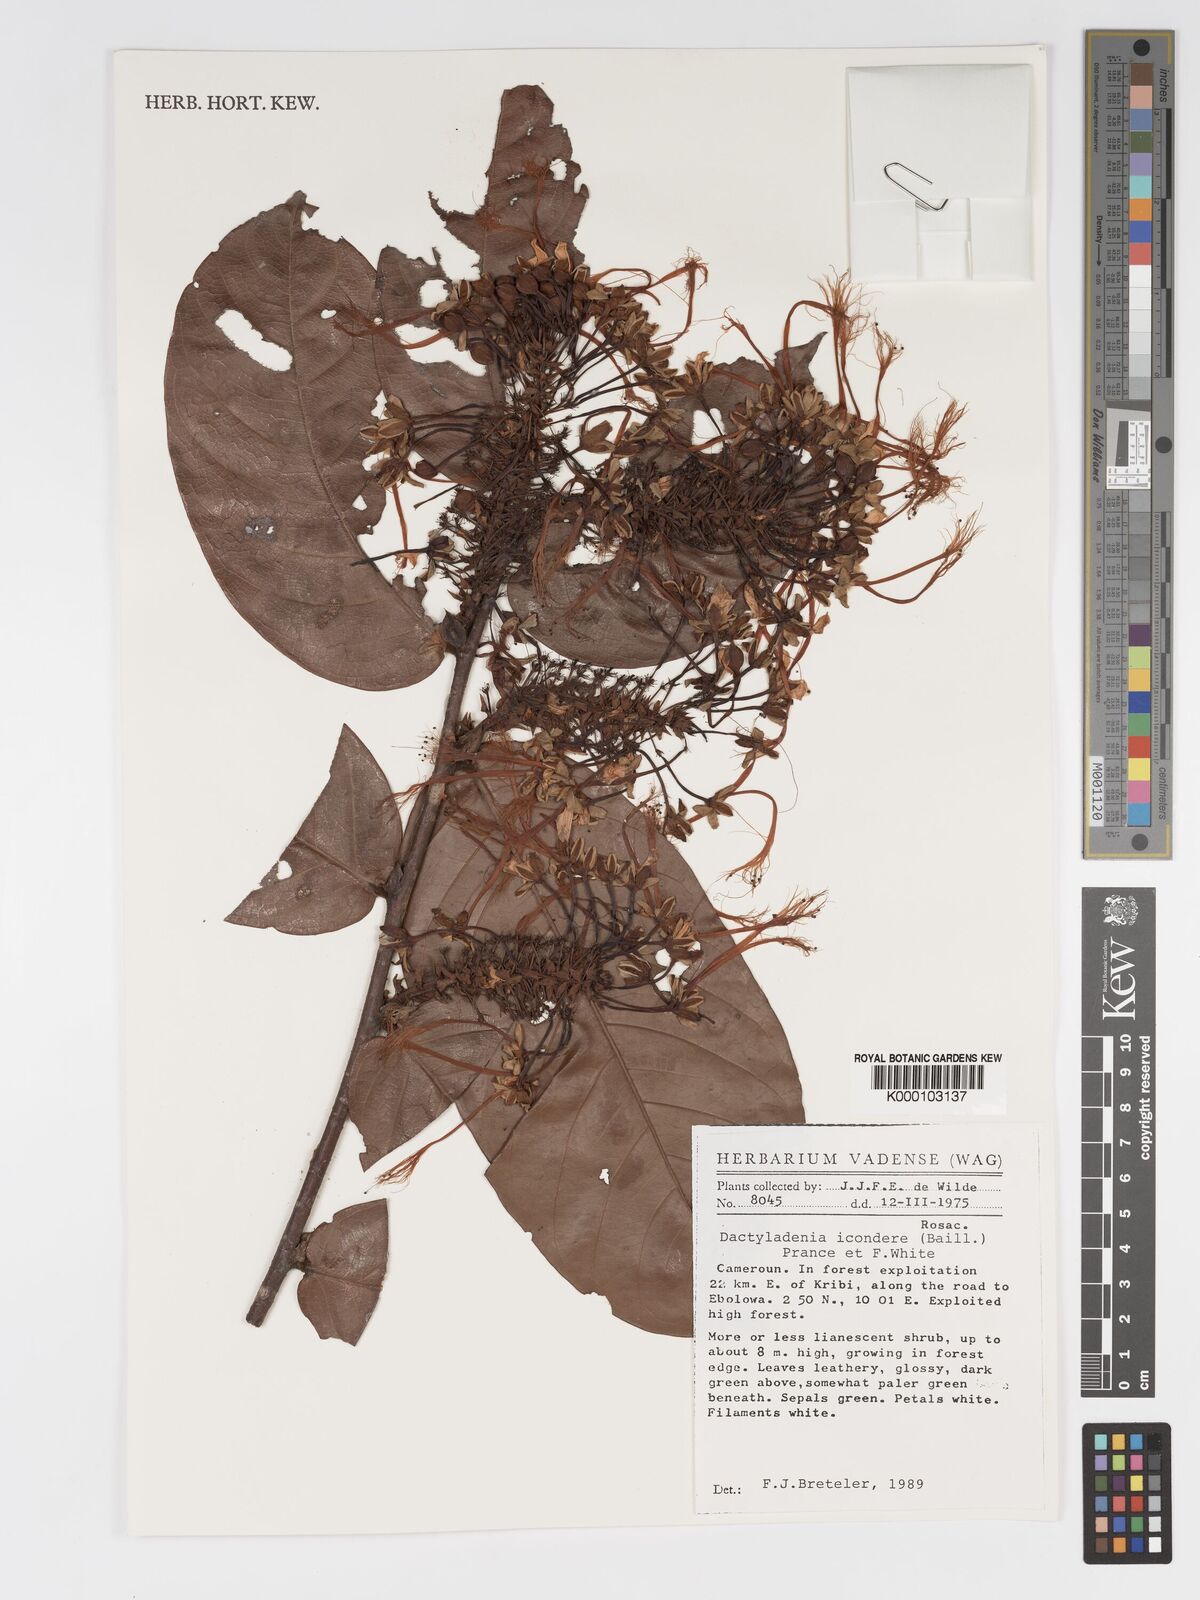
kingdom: Plantae
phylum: Tracheophyta
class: Magnoliopsida
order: Malpighiales
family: Chrysobalanaceae
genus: Dactyladenia
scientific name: Dactyladenia icondere
